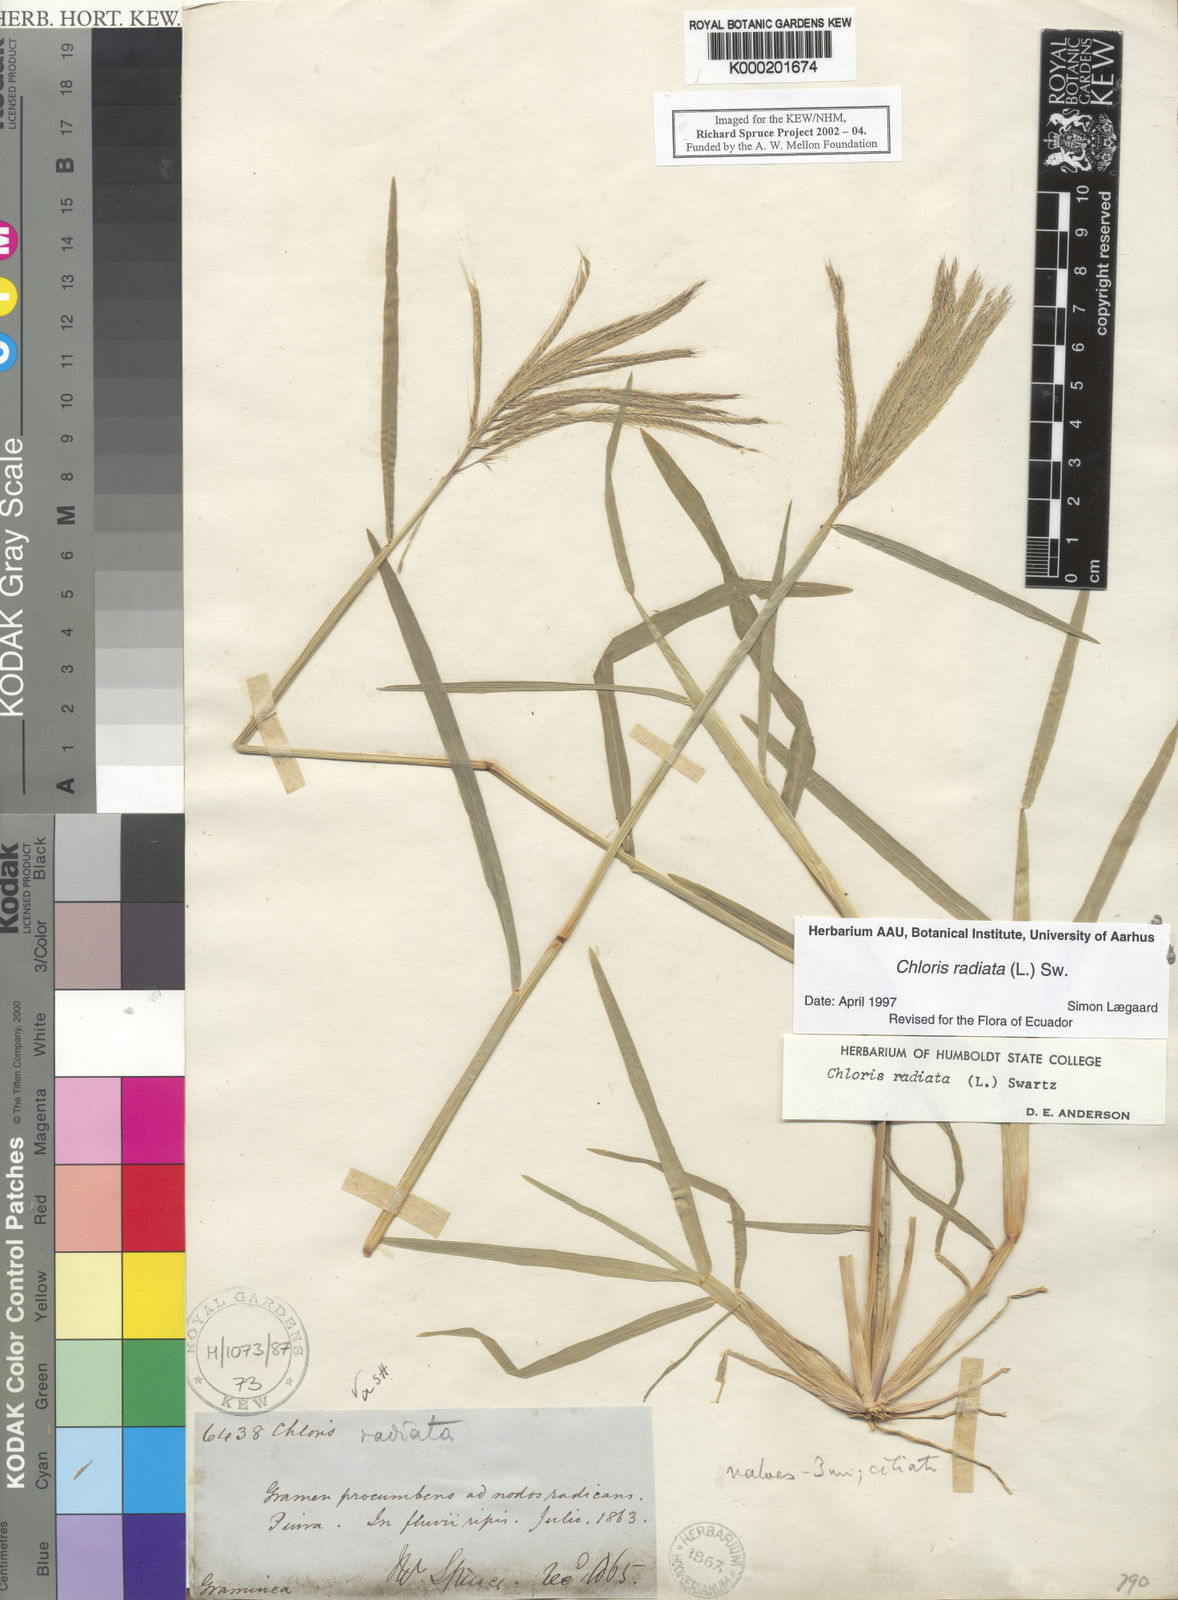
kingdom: Plantae
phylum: Tracheophyta
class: Liliopsida
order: Poales
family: Poaceae
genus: Chloris
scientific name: Chloris radiata
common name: Radiate fingergrass
